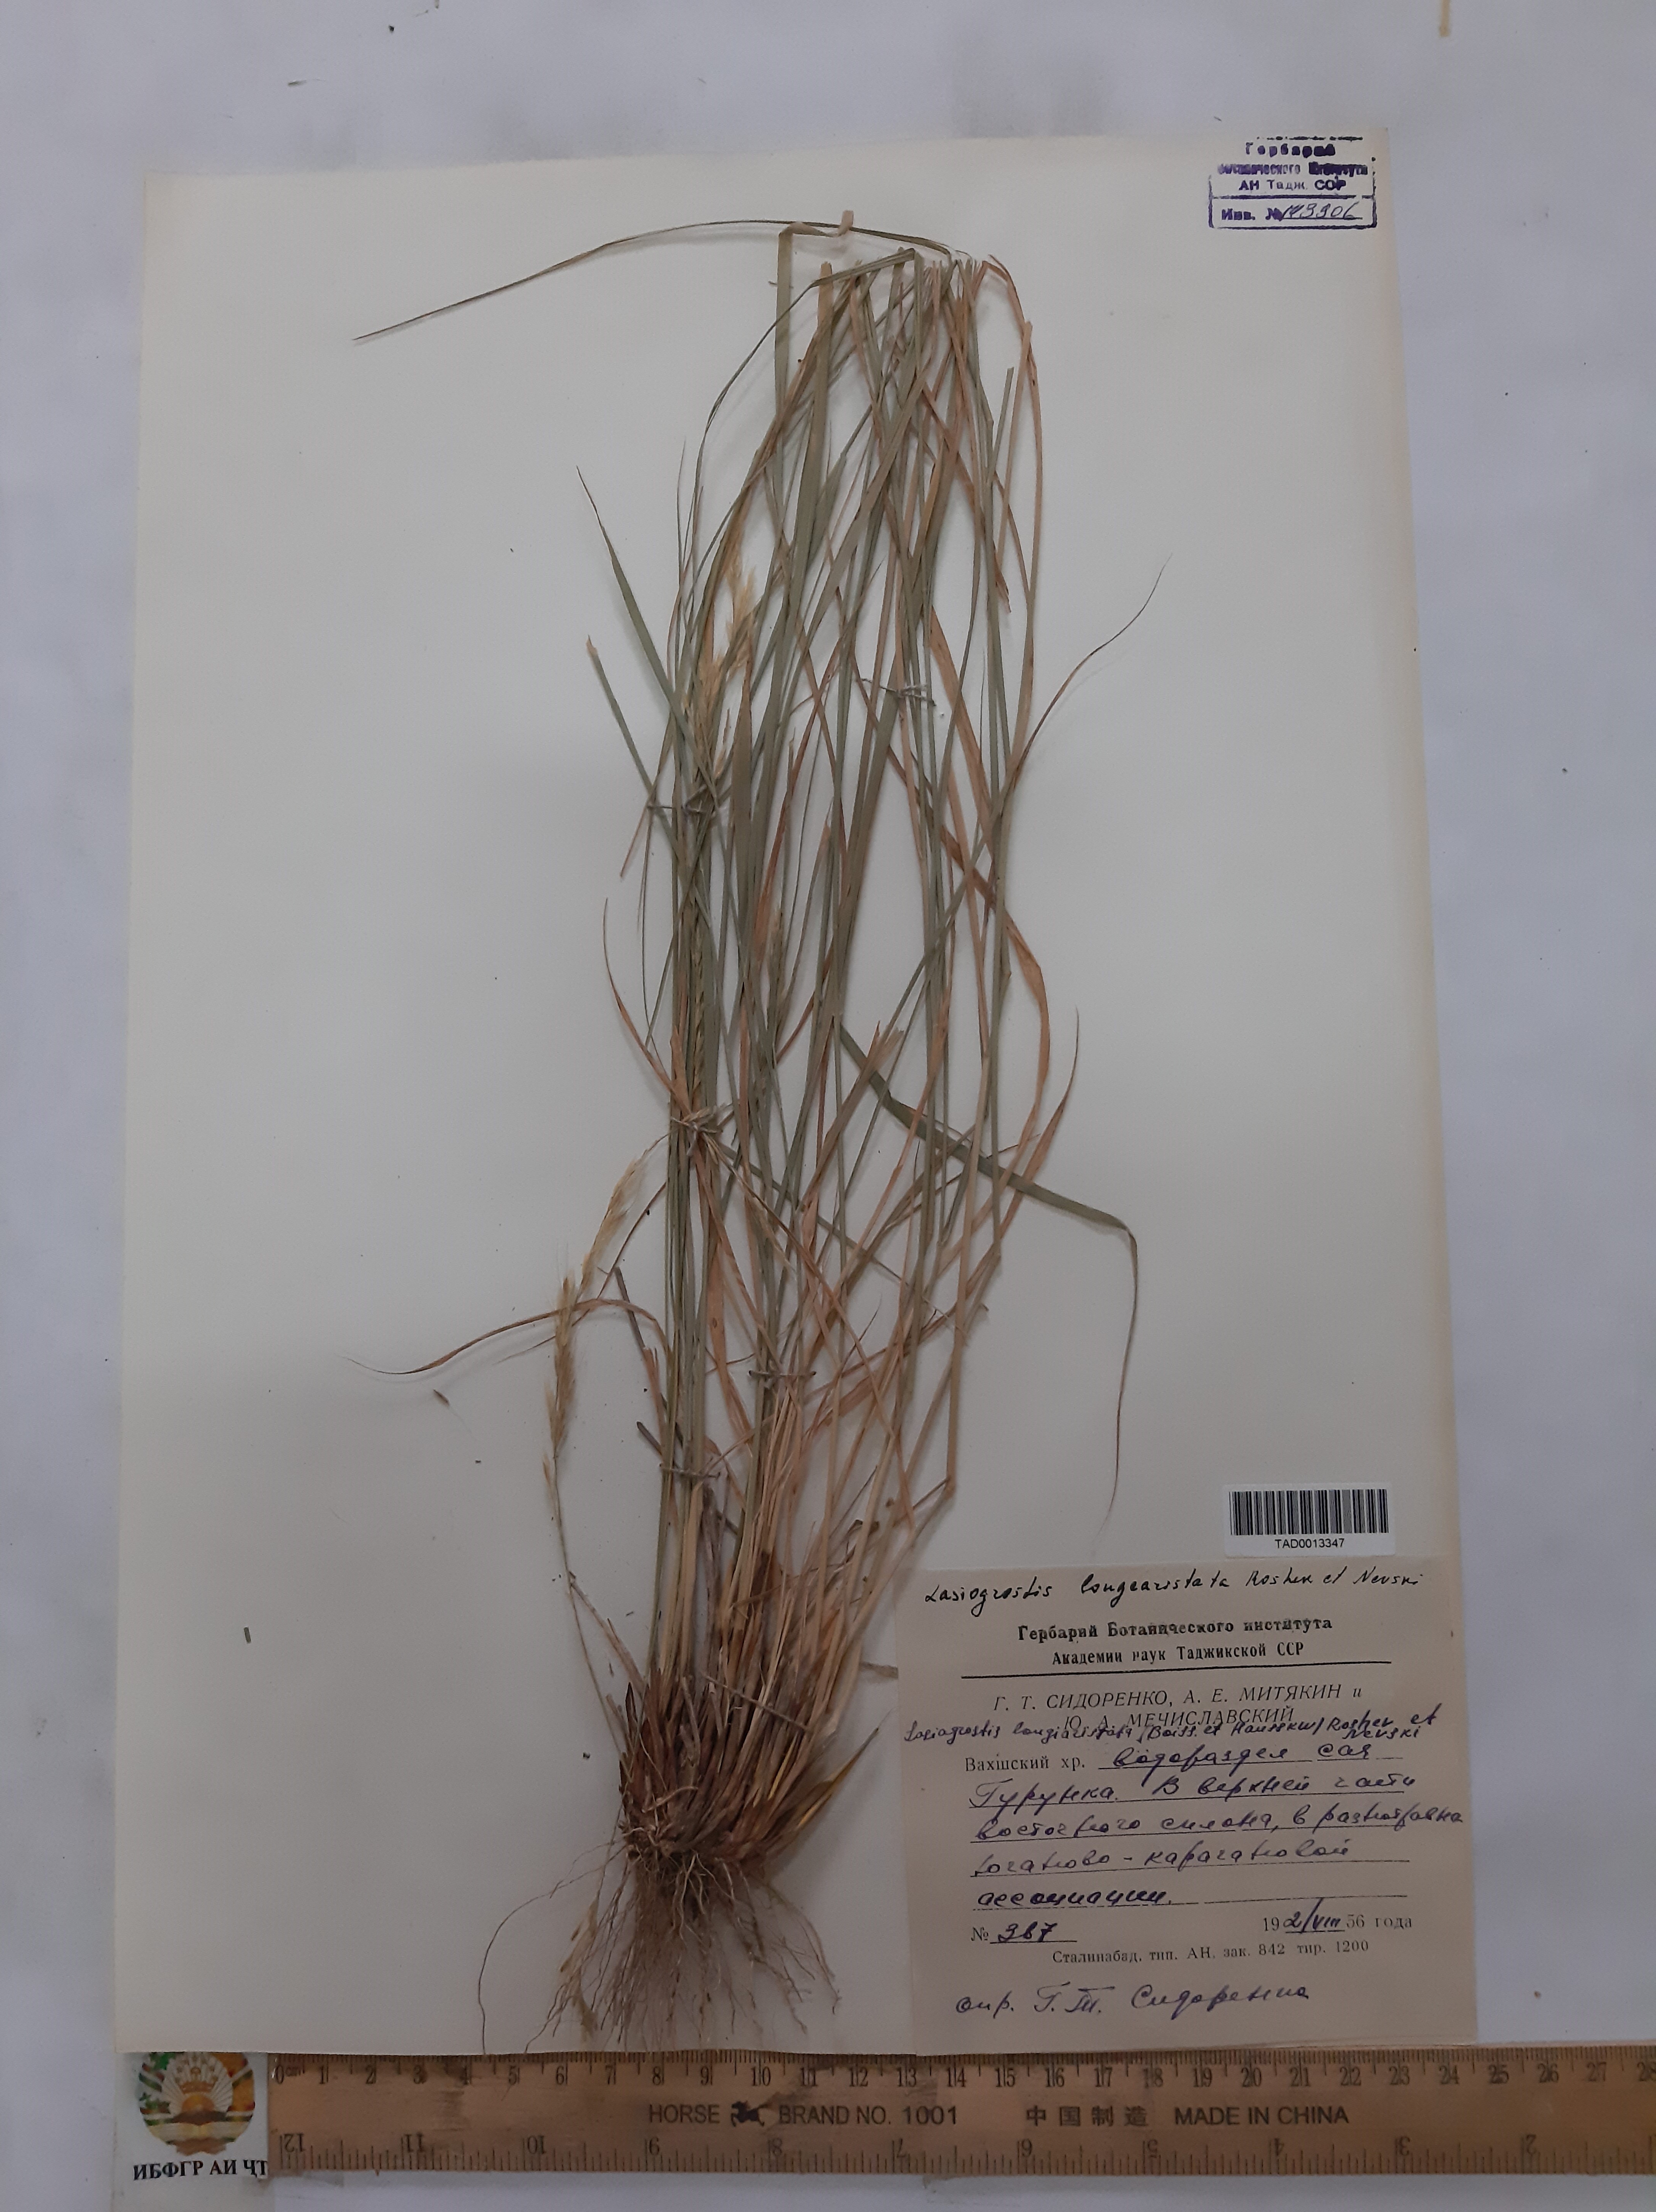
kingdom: Plantae
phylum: Tracheophyta
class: Liliopsida
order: Poales
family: Poaceae
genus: Achnatherum
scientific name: Achnatherum turcomanicum
